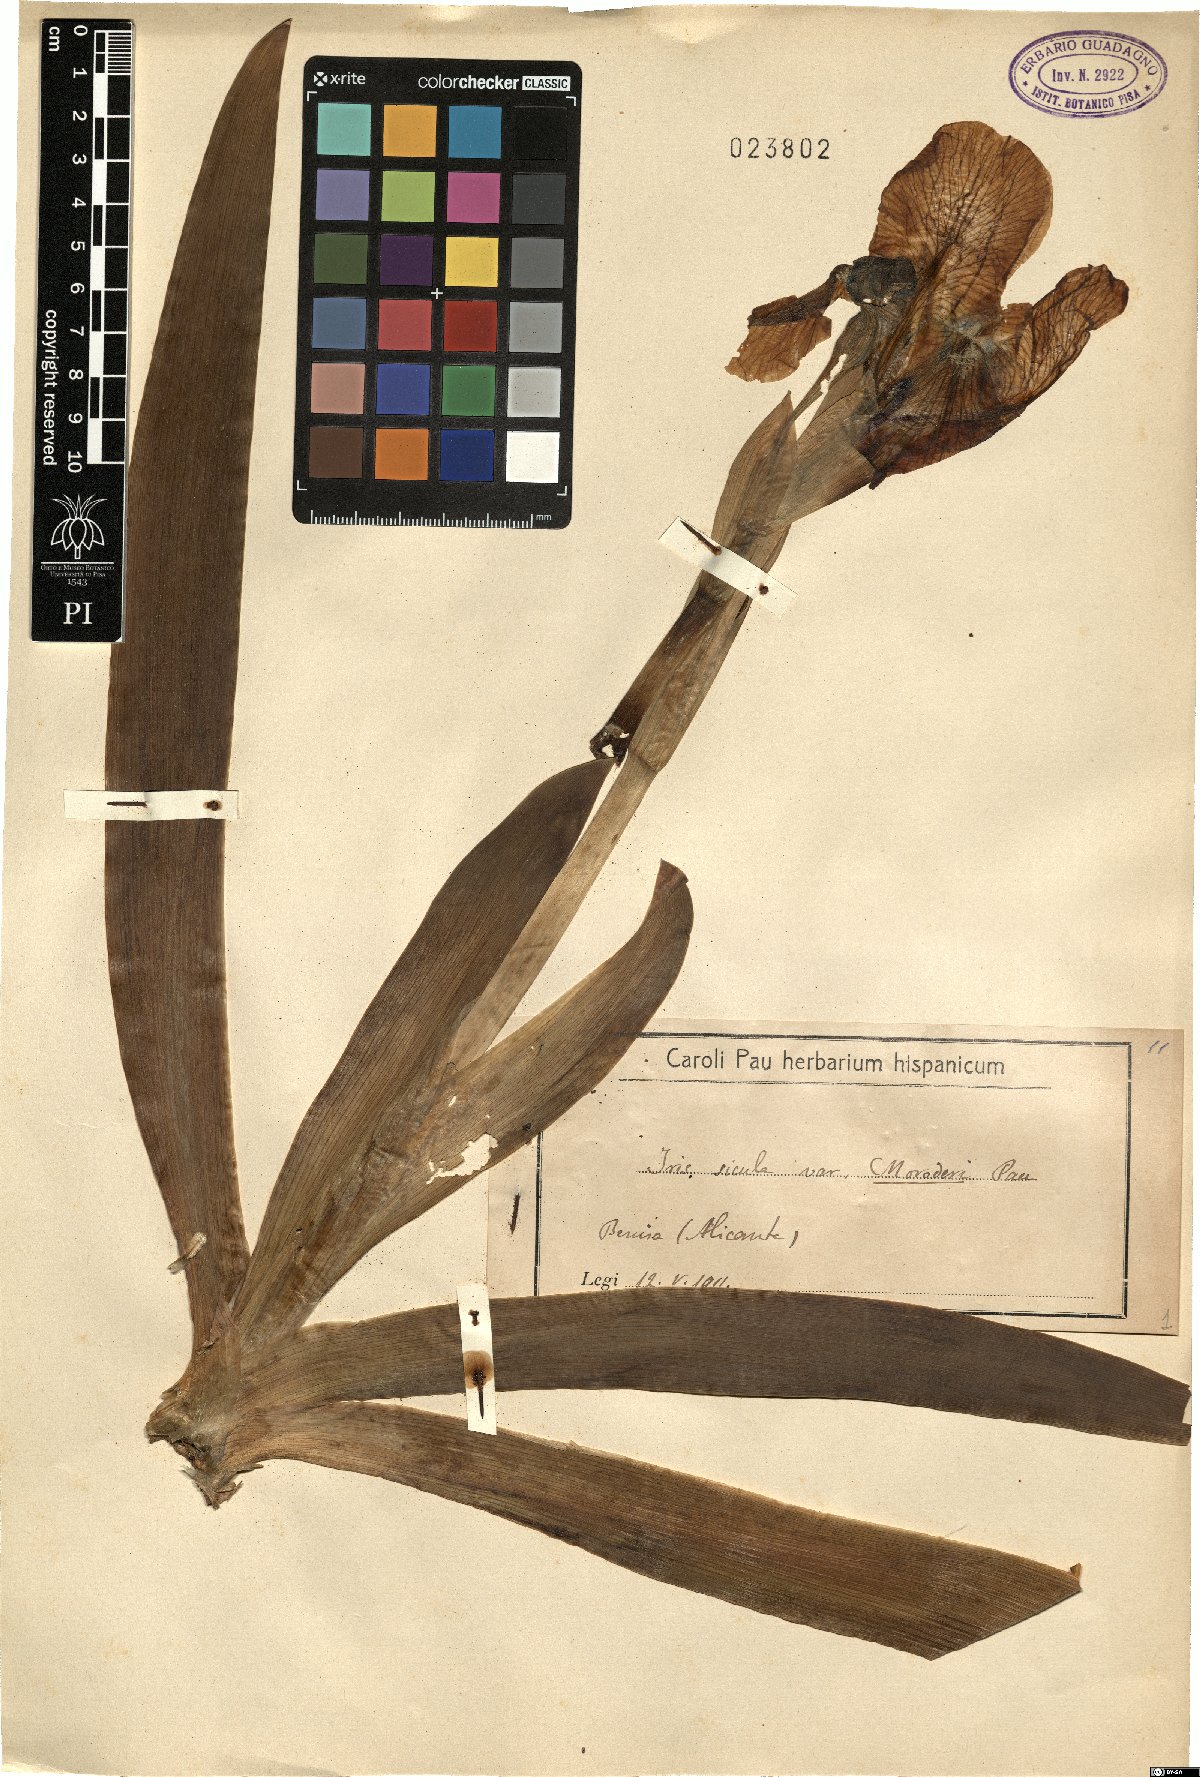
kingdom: Plantae
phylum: Tracheophyta
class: Liliopsida
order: Asparagales
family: Iridaceae
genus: Iris
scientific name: Iris pallida
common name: Sweet iris
